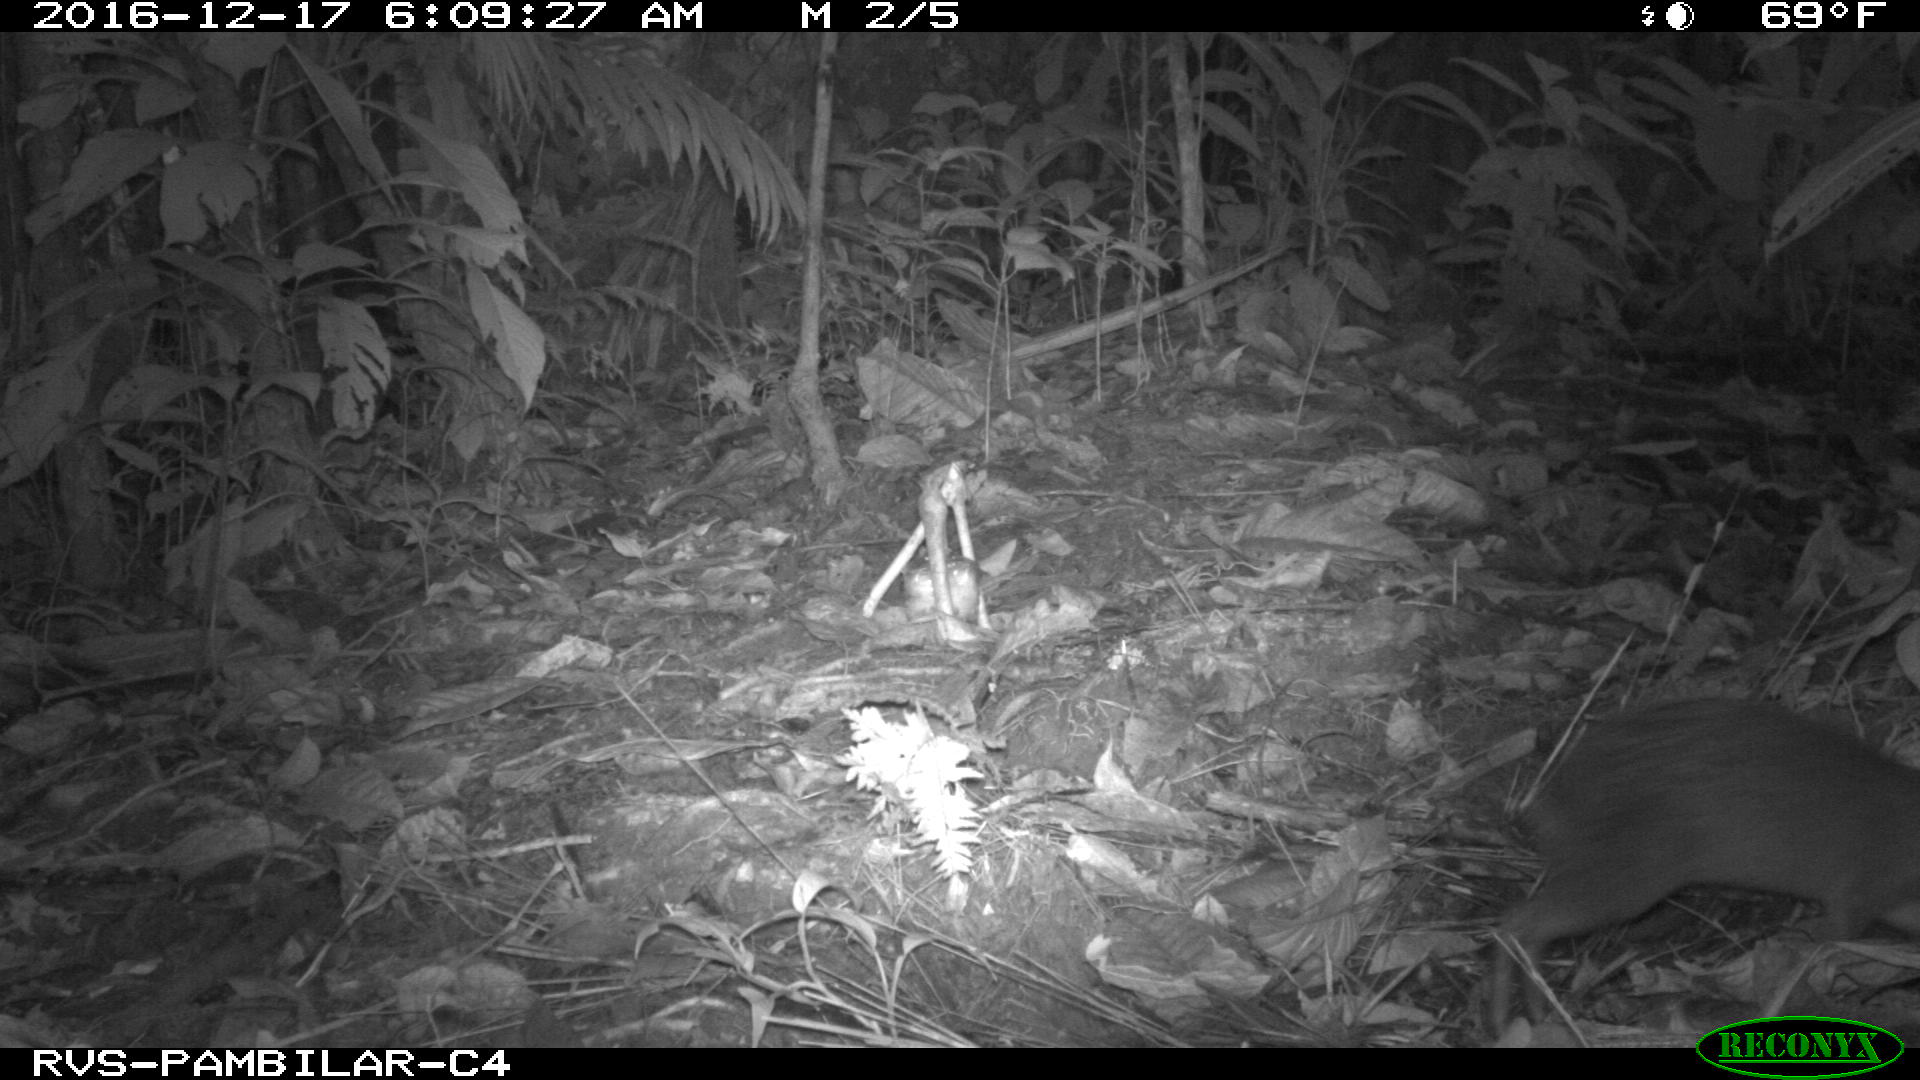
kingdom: Animalia
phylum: Chordata
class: Mammalia
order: Rodentia
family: Dasyproctidae
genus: Dasyprocta
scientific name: Dasyprocta punctata
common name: Central american agouti
